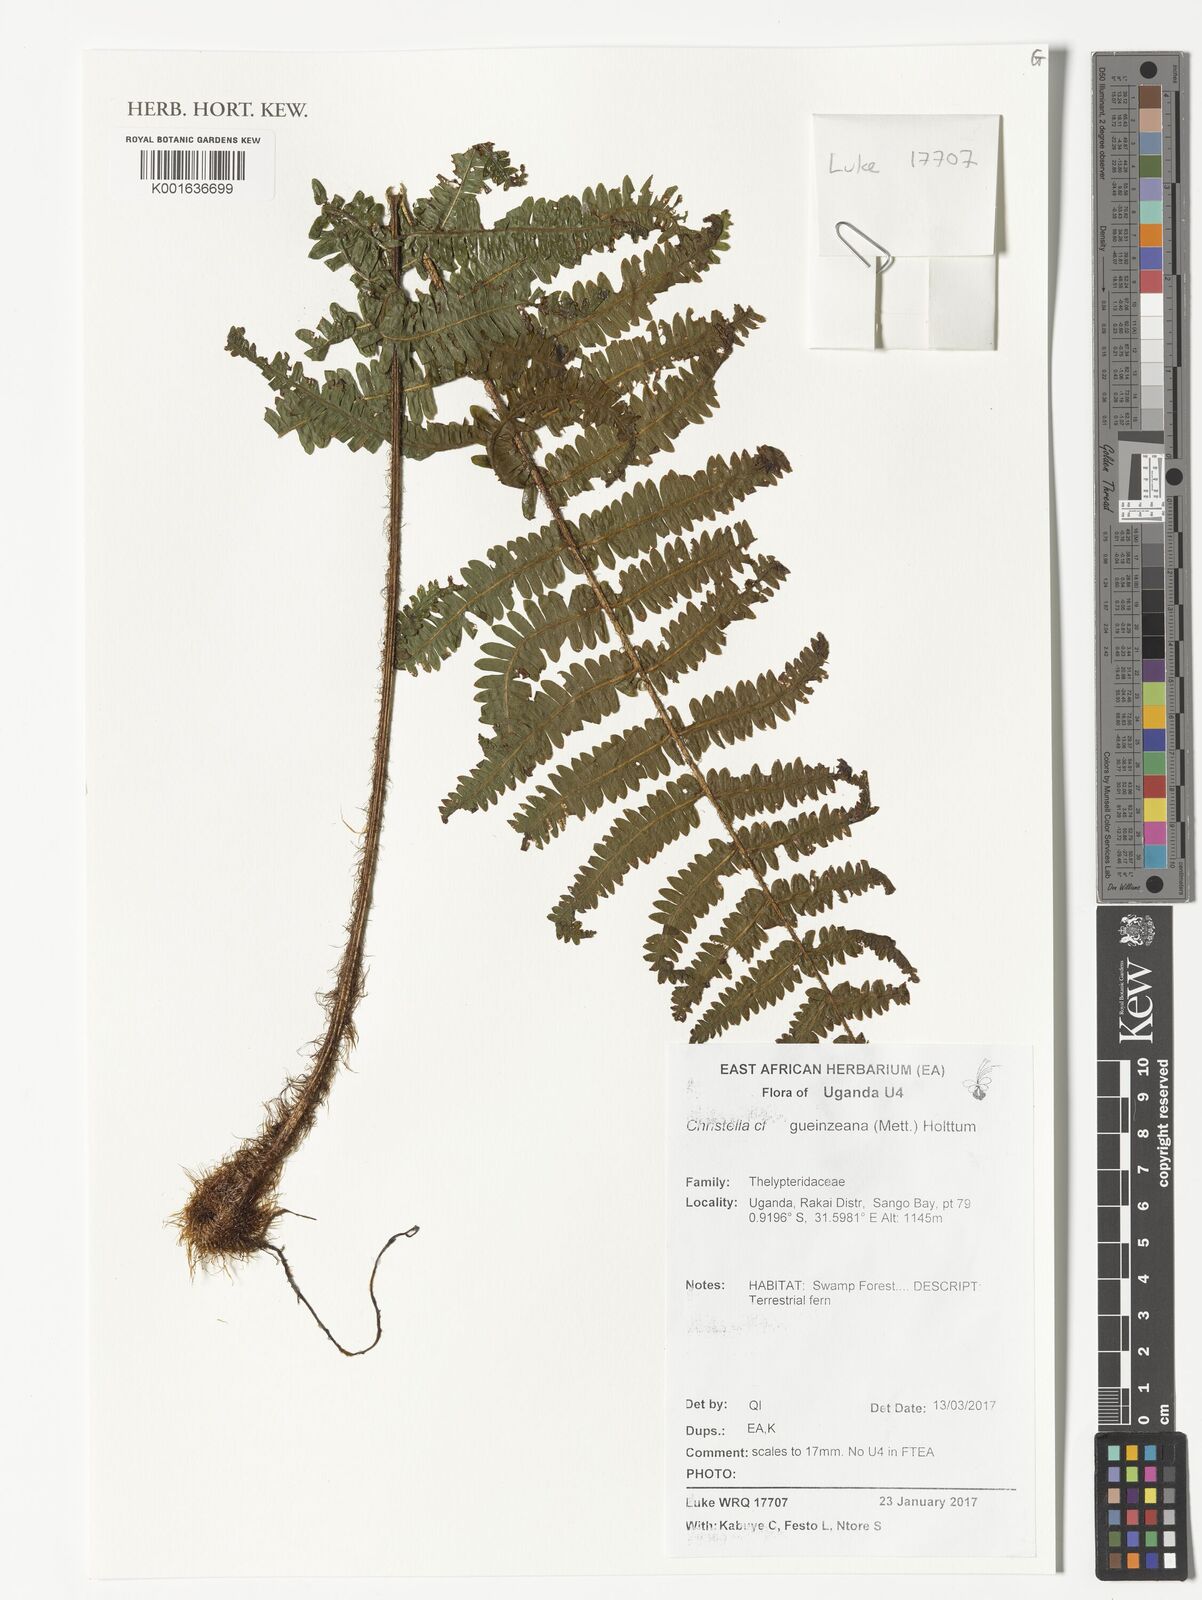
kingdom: Plantae
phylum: Tracheophyta
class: Polypodiopsida
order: Polypodiales
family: Thelypteridaceae
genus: Christella
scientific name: Christella gueintziana
